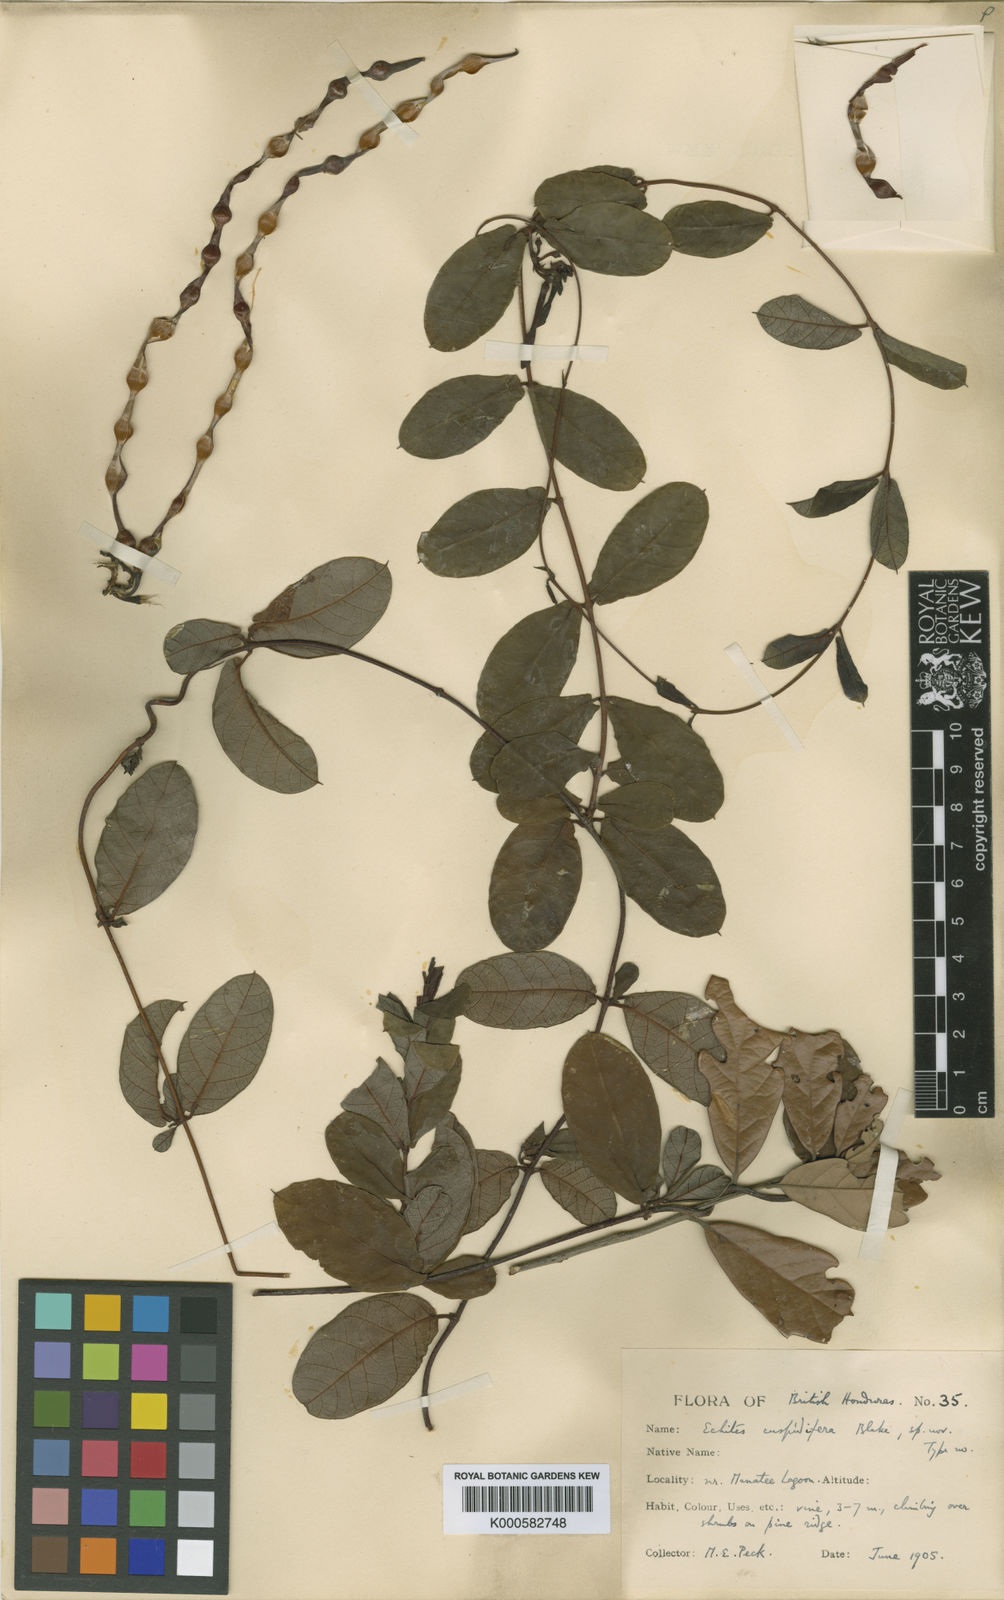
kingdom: Plantae
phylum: Tracheophyta
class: Magnoliopsida
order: Gentianales
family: Apocynaceae
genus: Echites
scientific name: Echites
